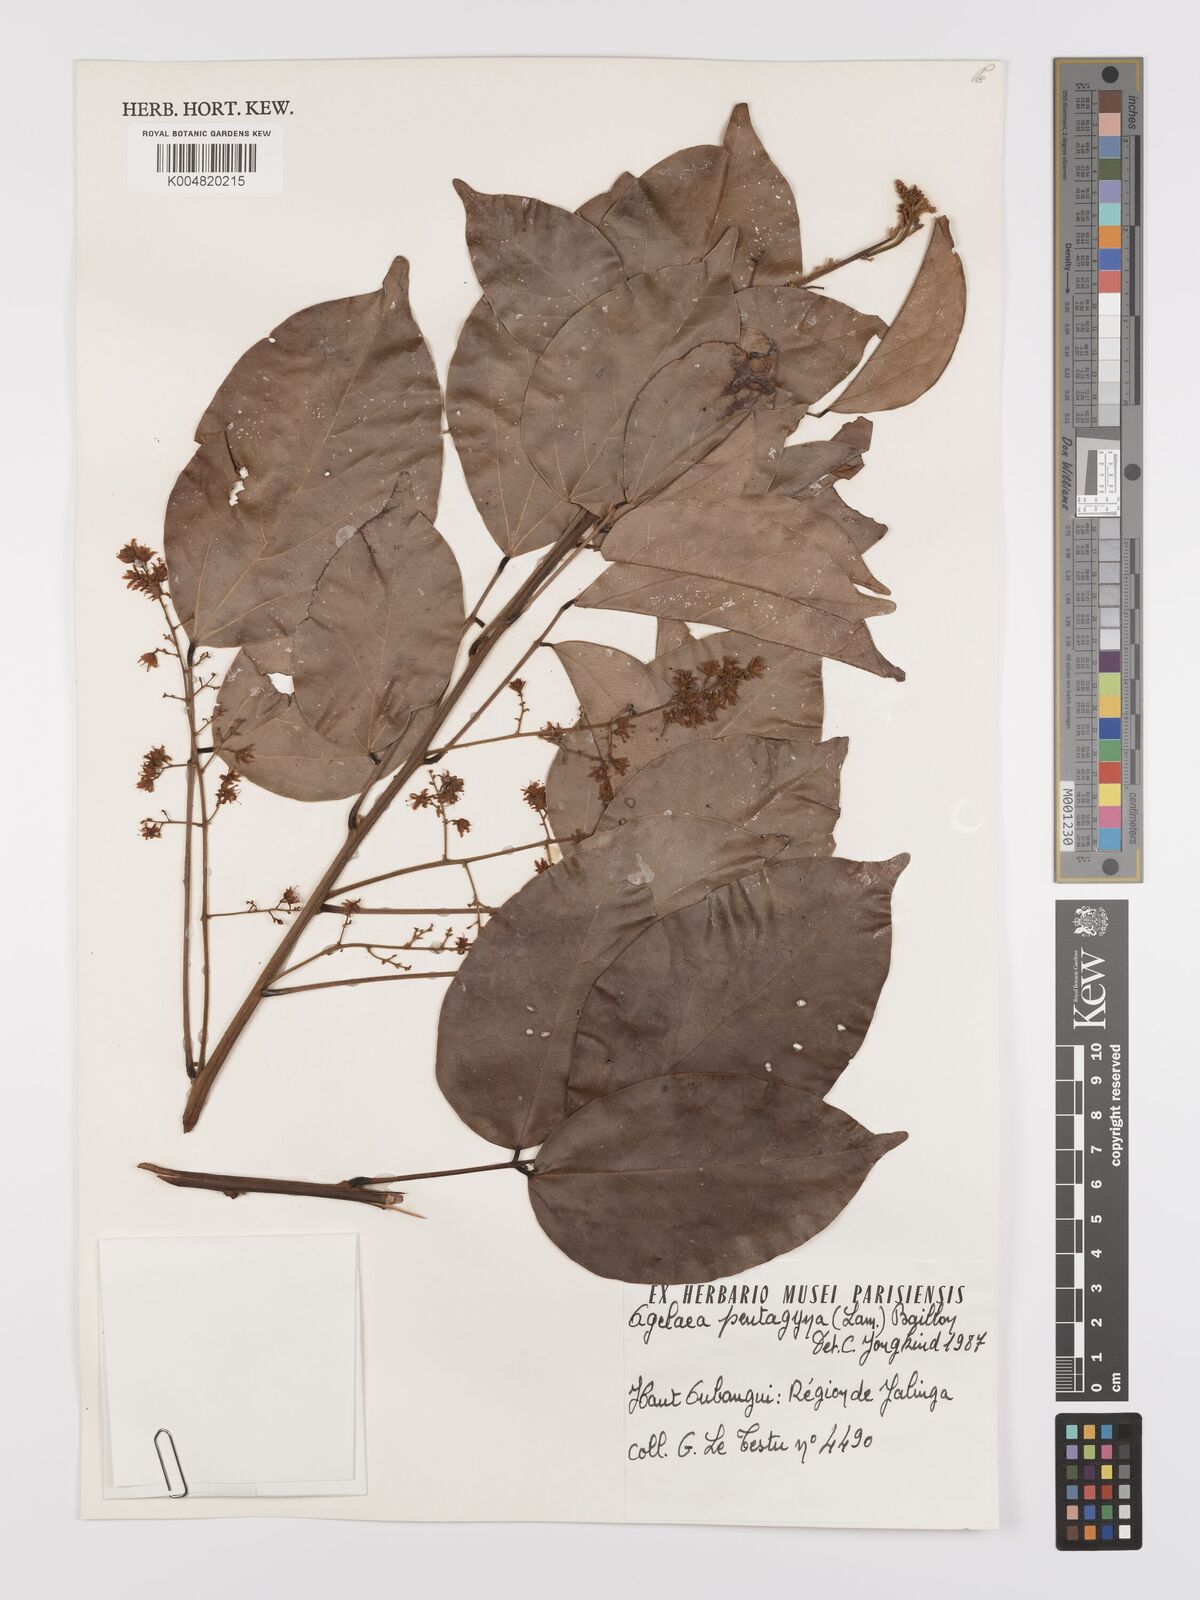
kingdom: Plantae
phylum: Tracheophyta
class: Magnoliopsida
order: Oxalidales
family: Connaraceae
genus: Agelaea
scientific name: Agelaea pentagyna
